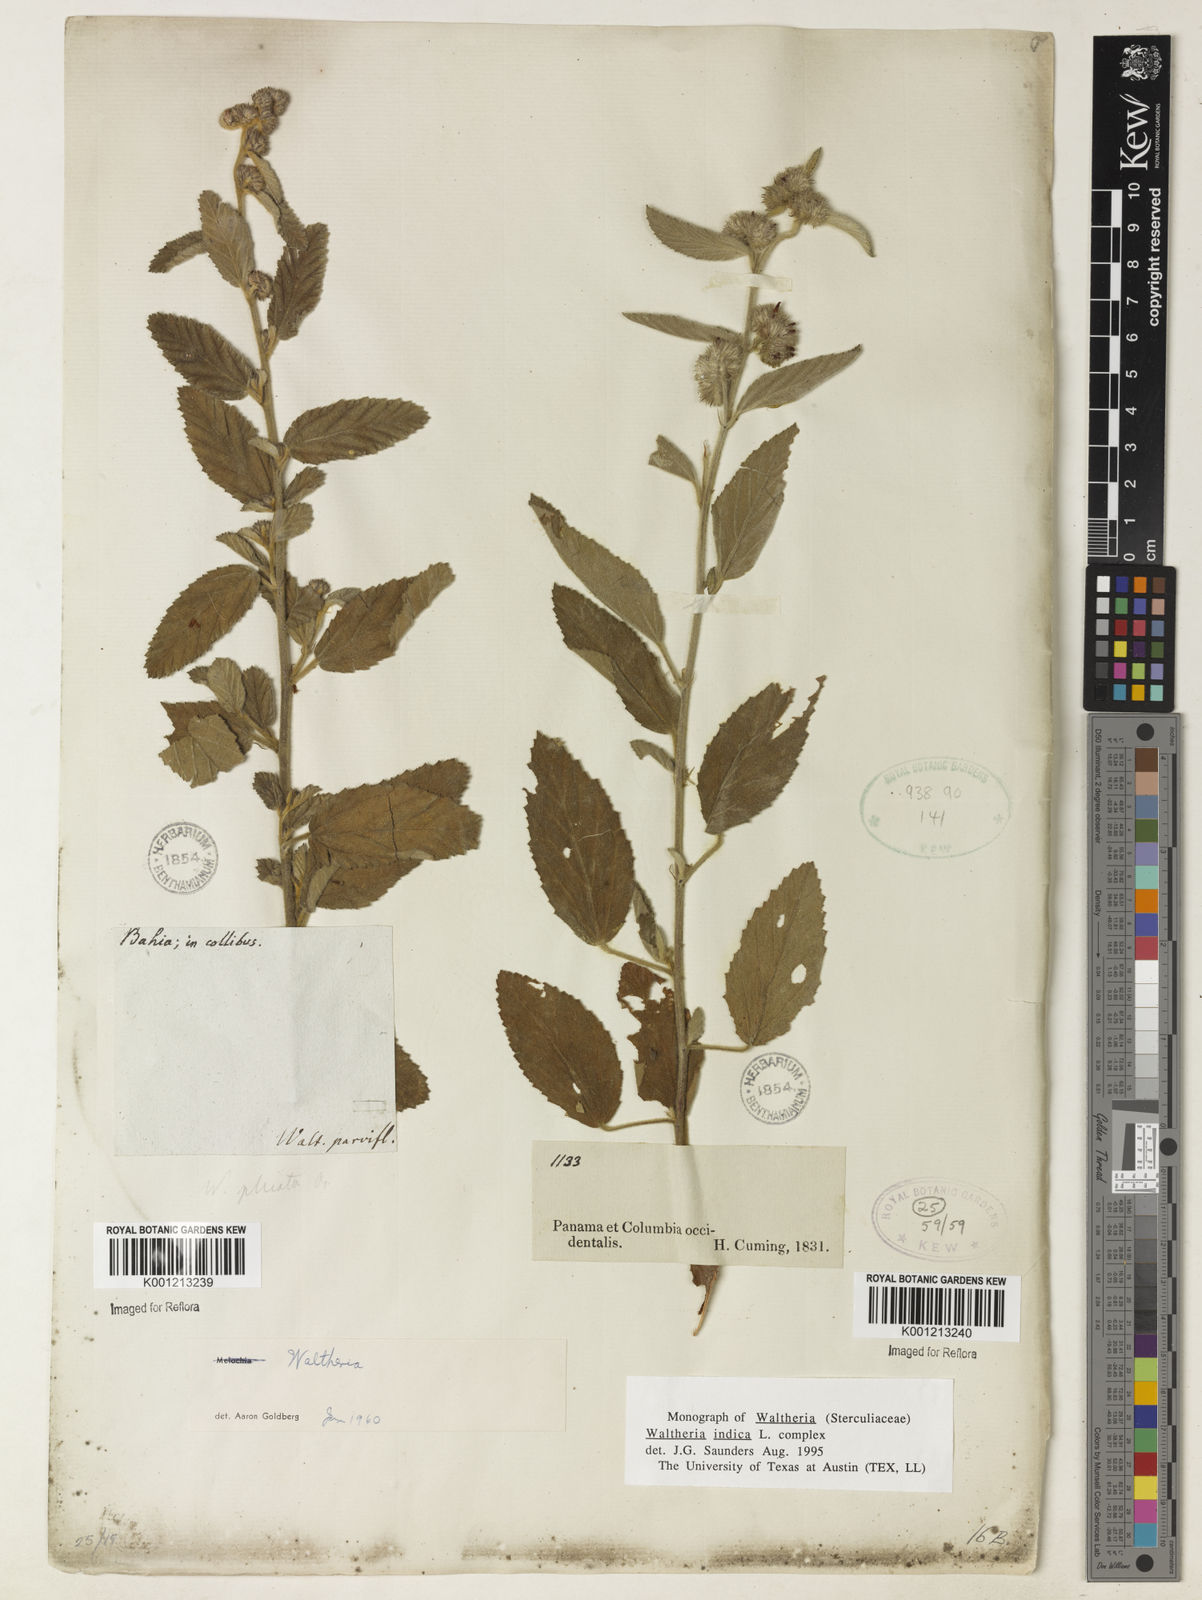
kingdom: Plantae
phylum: Tracheophyta
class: Magnoliopsida
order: Malvales
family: Malvaceae
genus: Waltheria
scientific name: Waltheria indica
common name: Leather-coat
